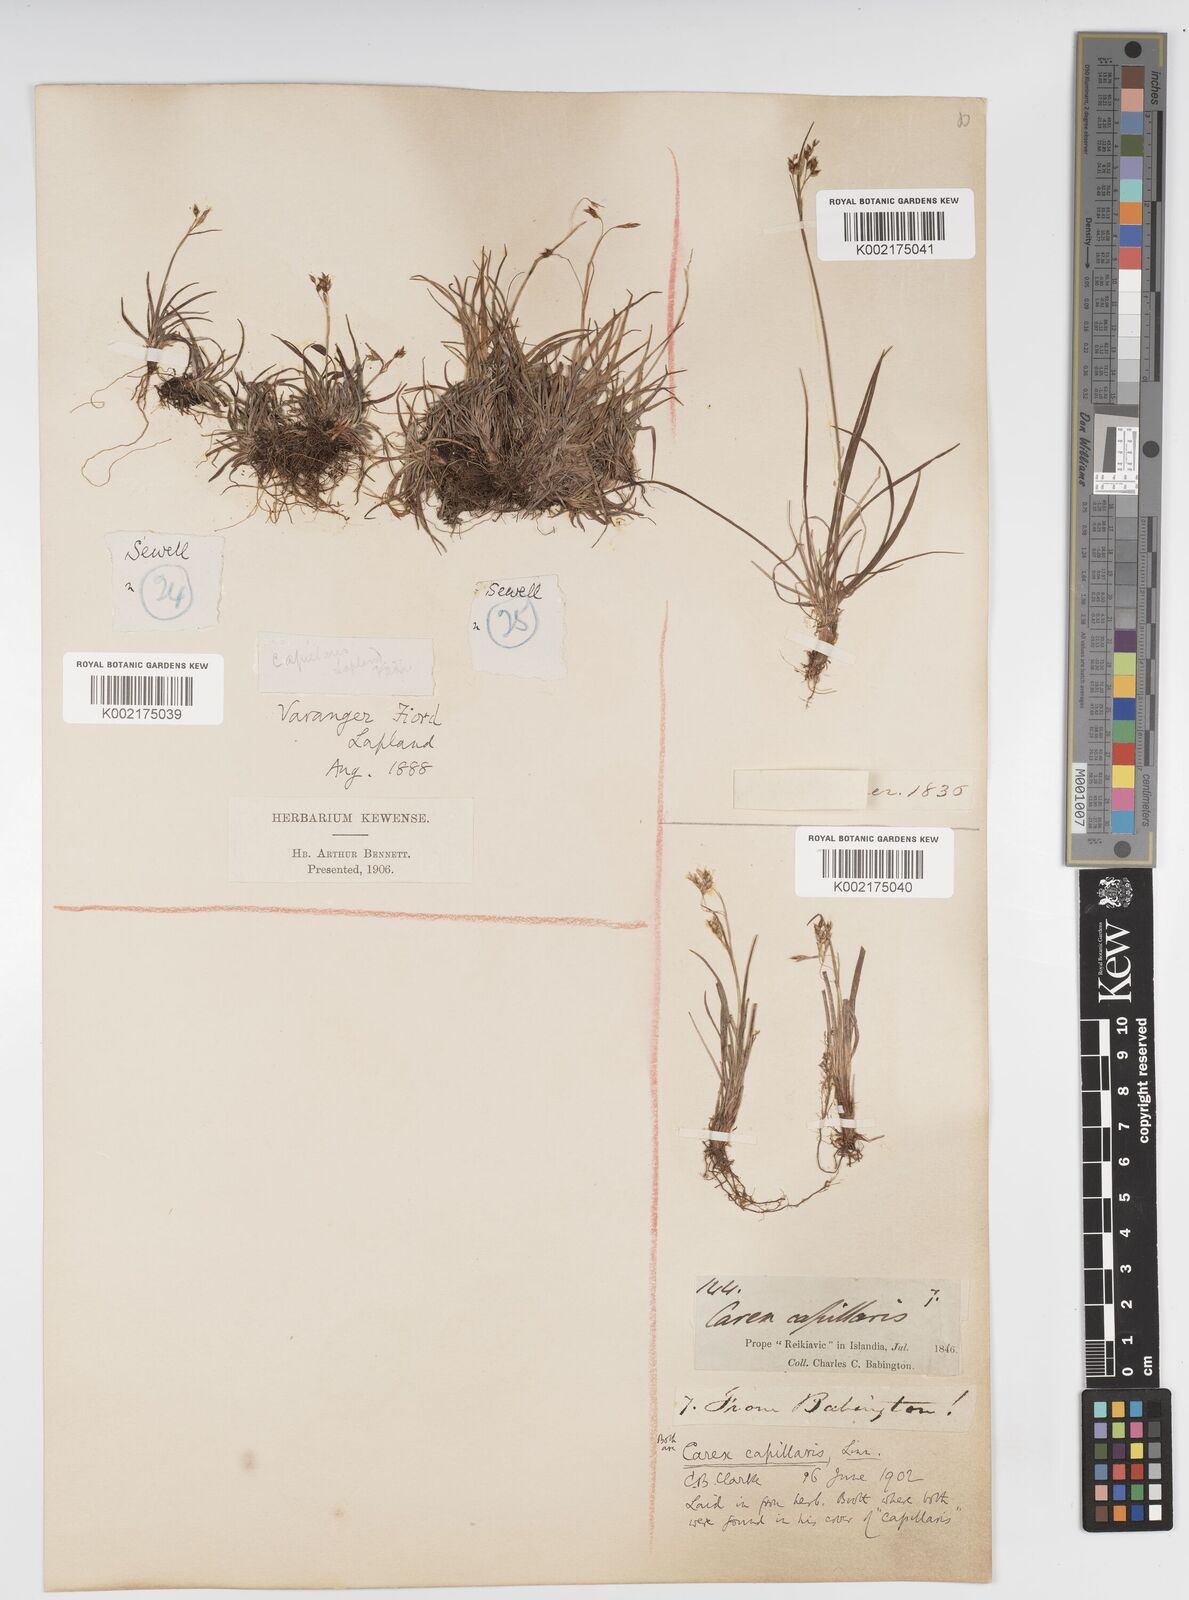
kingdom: Plantae
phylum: Tracheophyta
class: Liliopsida
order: Poales
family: Cyperaceae
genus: Carex
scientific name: Carex capillaris
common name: Hair sedge
